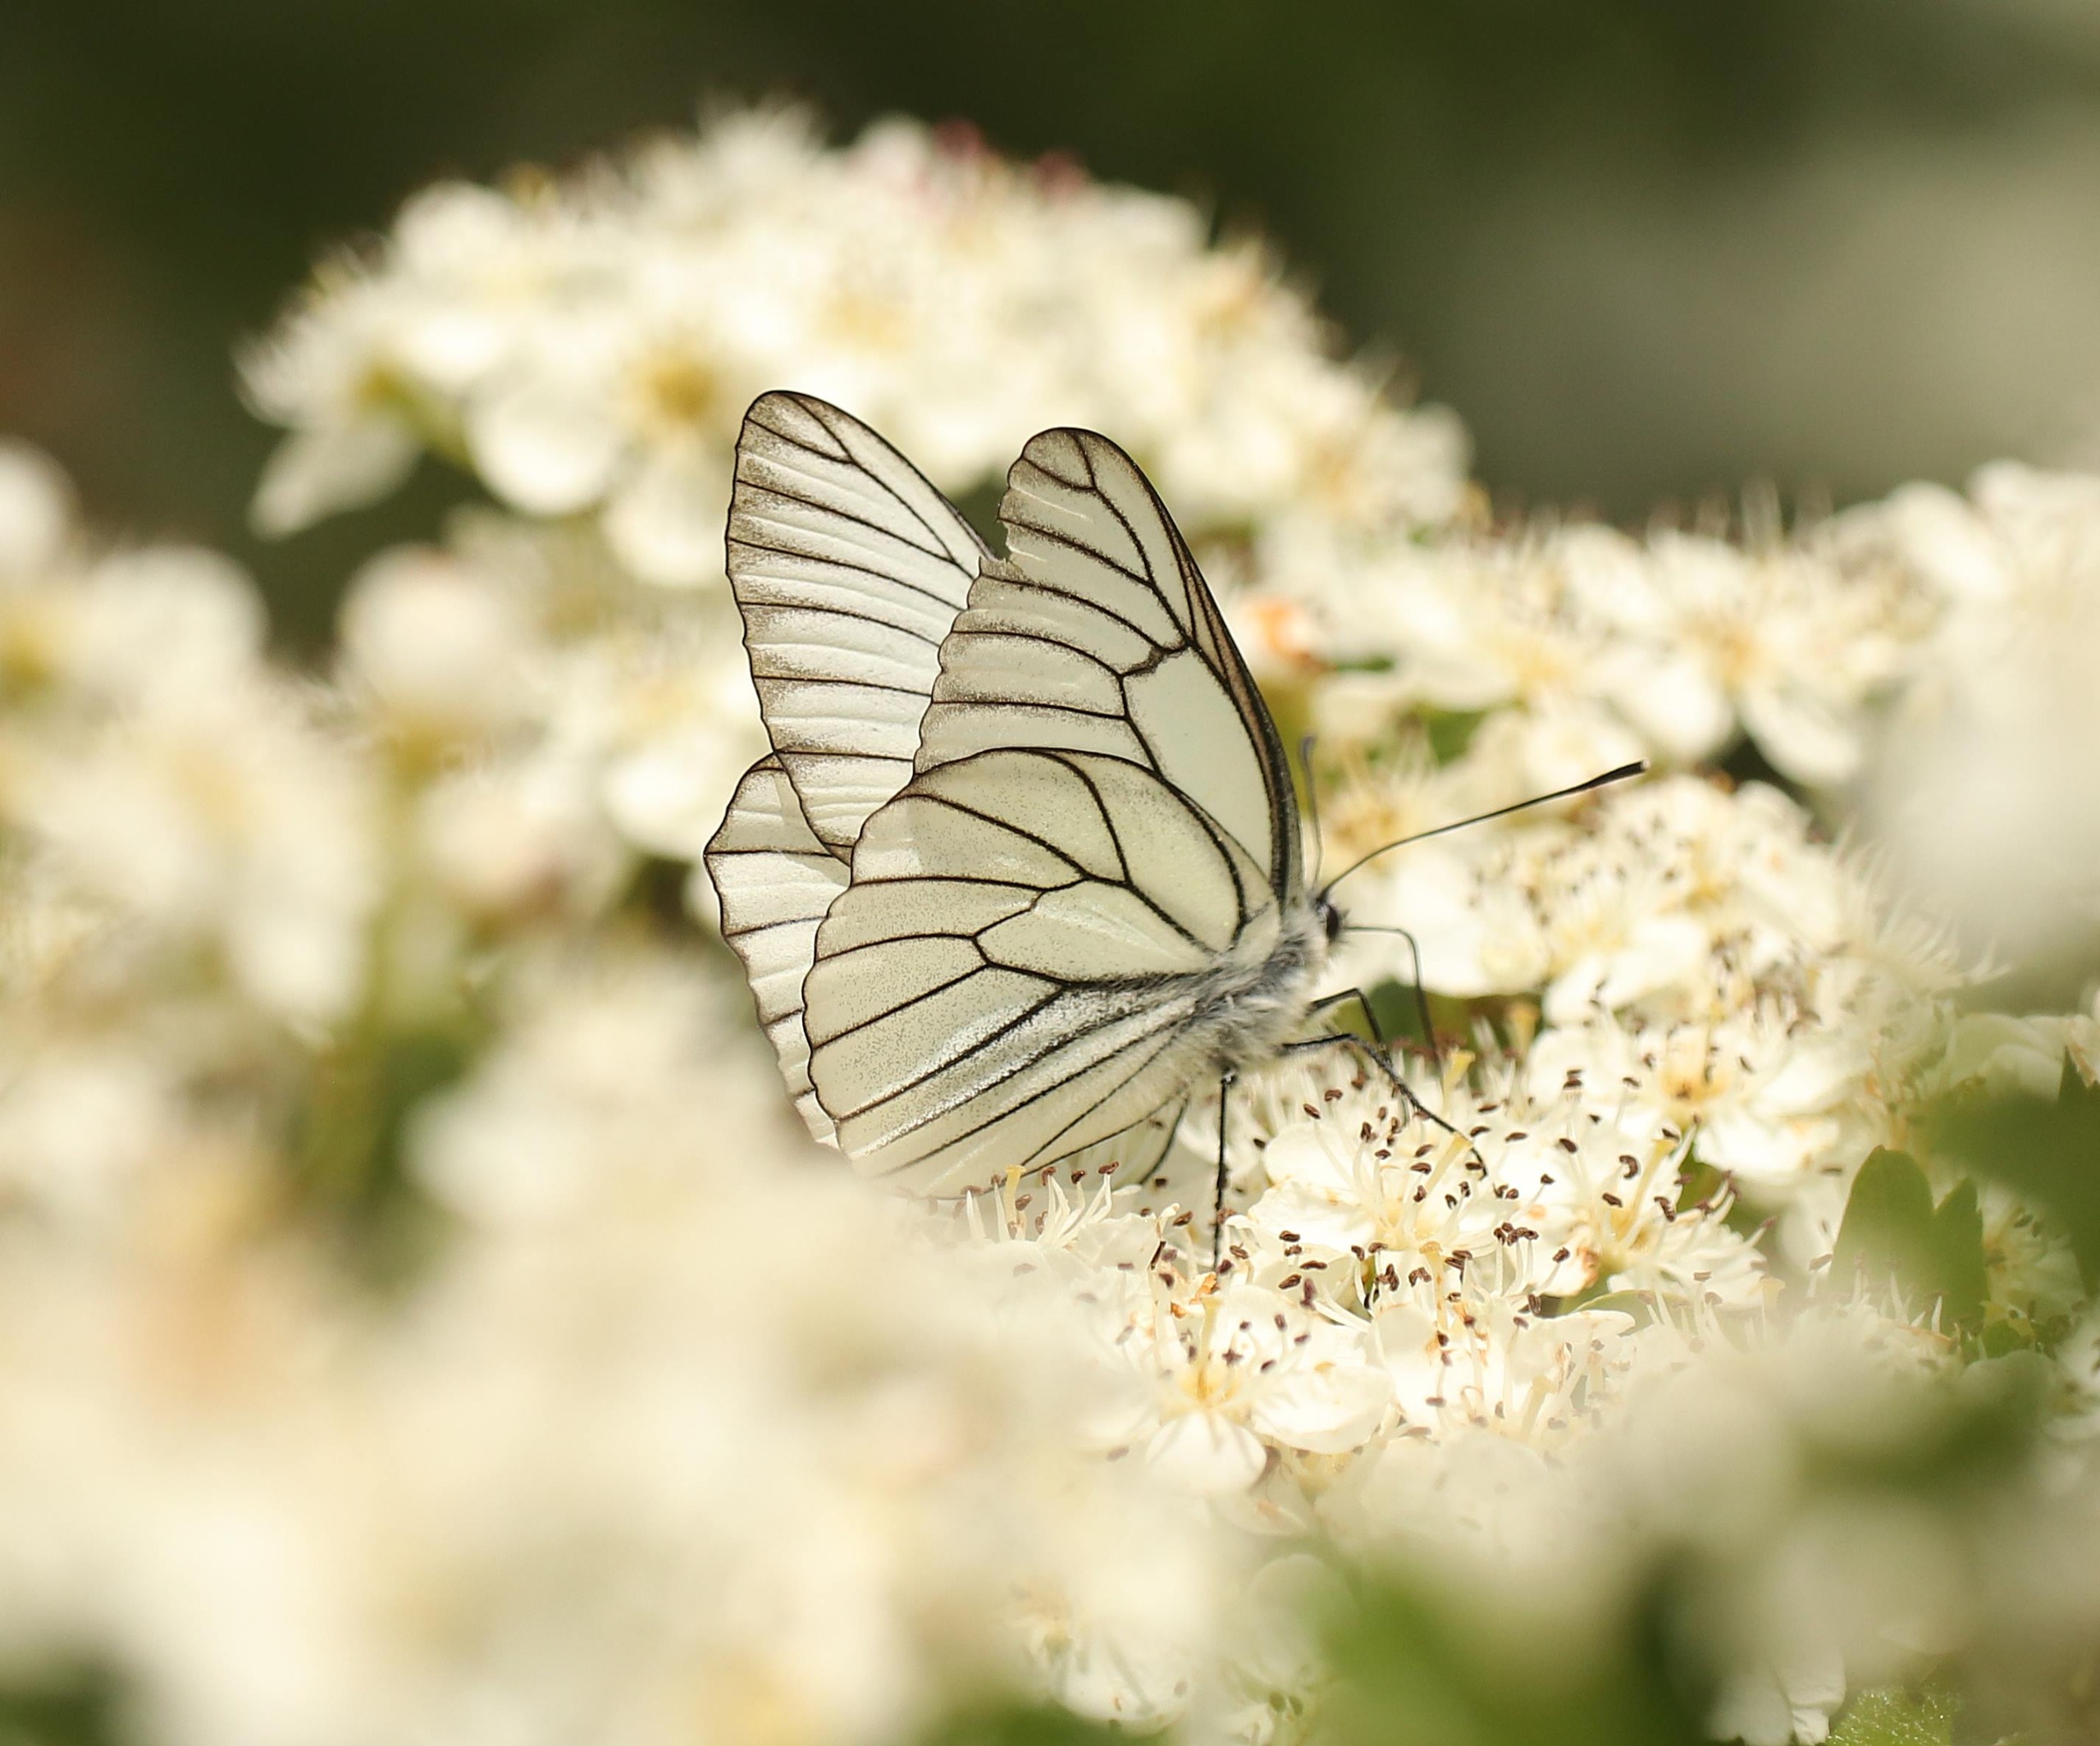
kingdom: Animalia
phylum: Arthropoda
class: Insecta
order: Lepidoptera
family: Pieridae
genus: Aporia
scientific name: Aporia crataegi
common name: Sortåret hvidvinge
